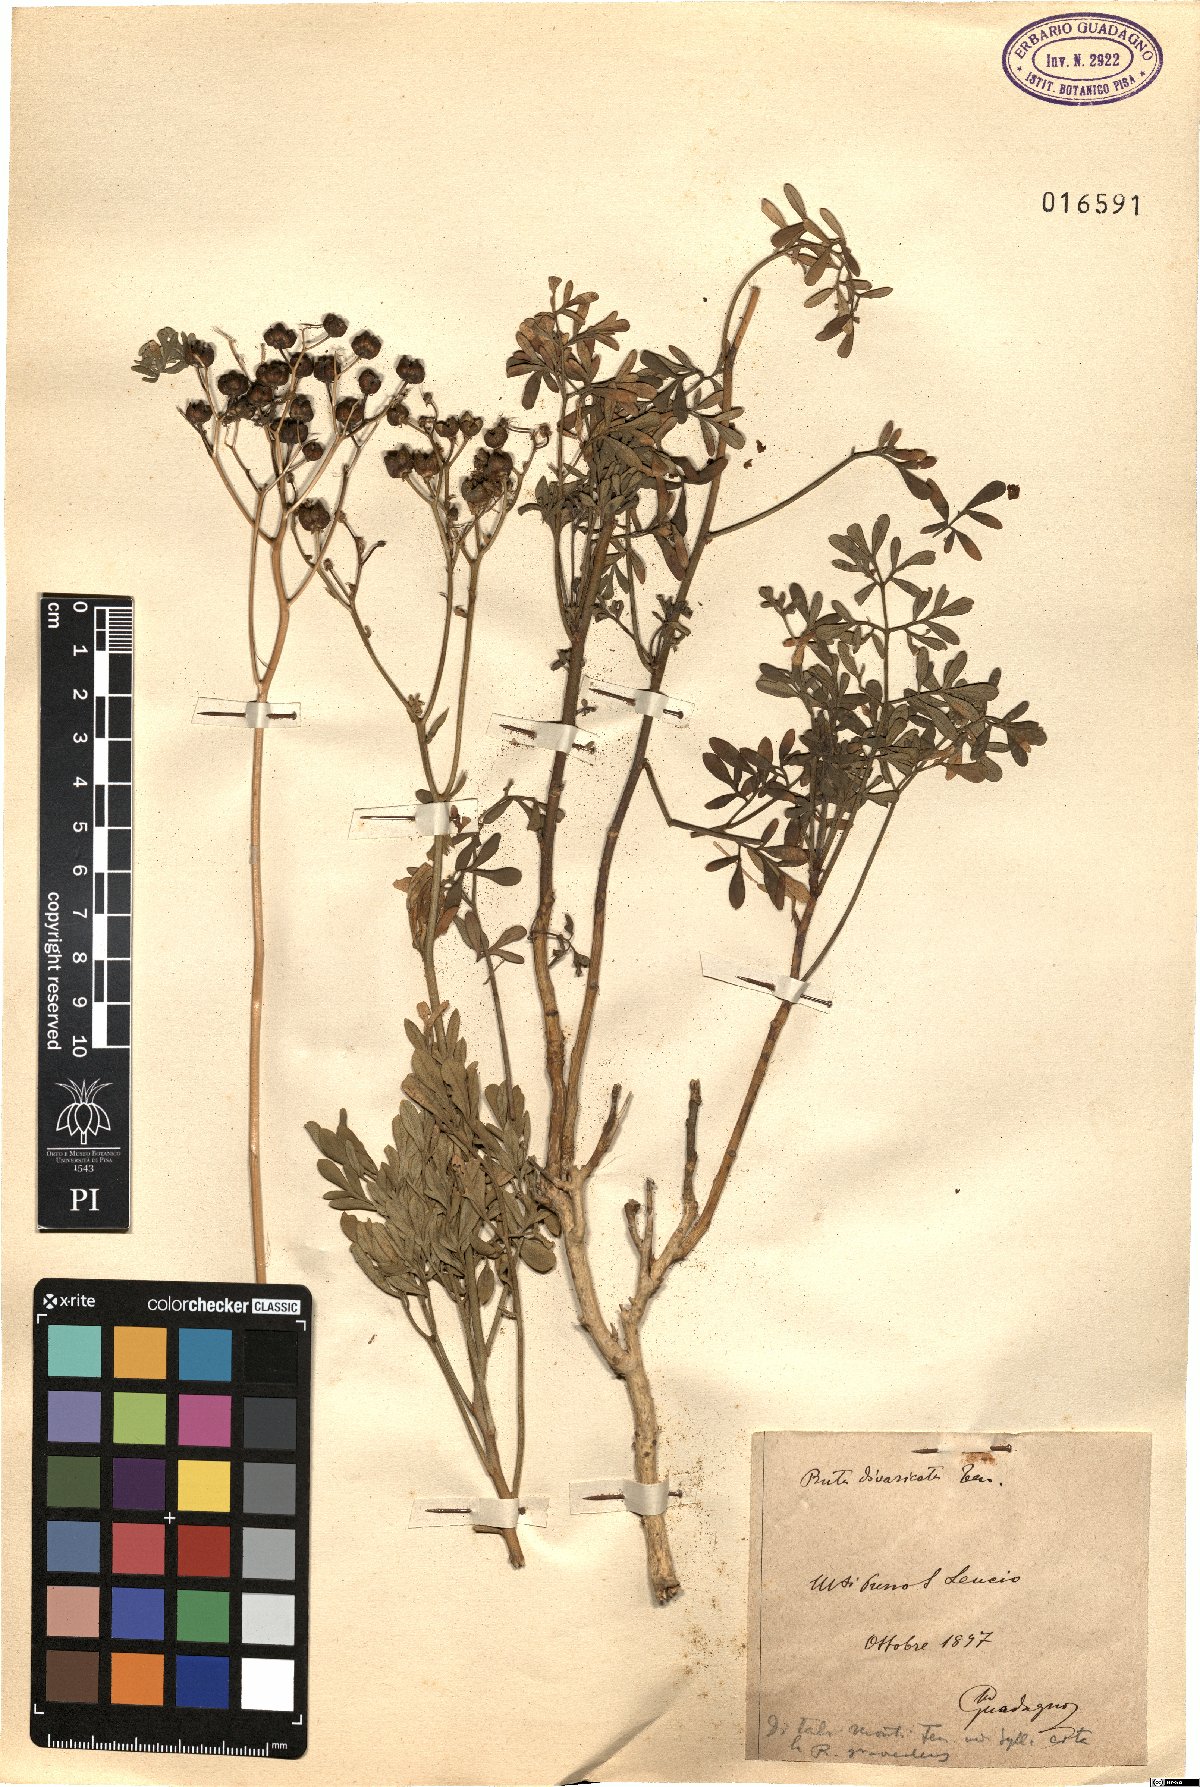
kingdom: Plantae
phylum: Tracheophyta
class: Magnoliopsida
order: Sapindales
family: Rutaceae
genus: Ruta
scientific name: Ruta graveolens
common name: Common rue
